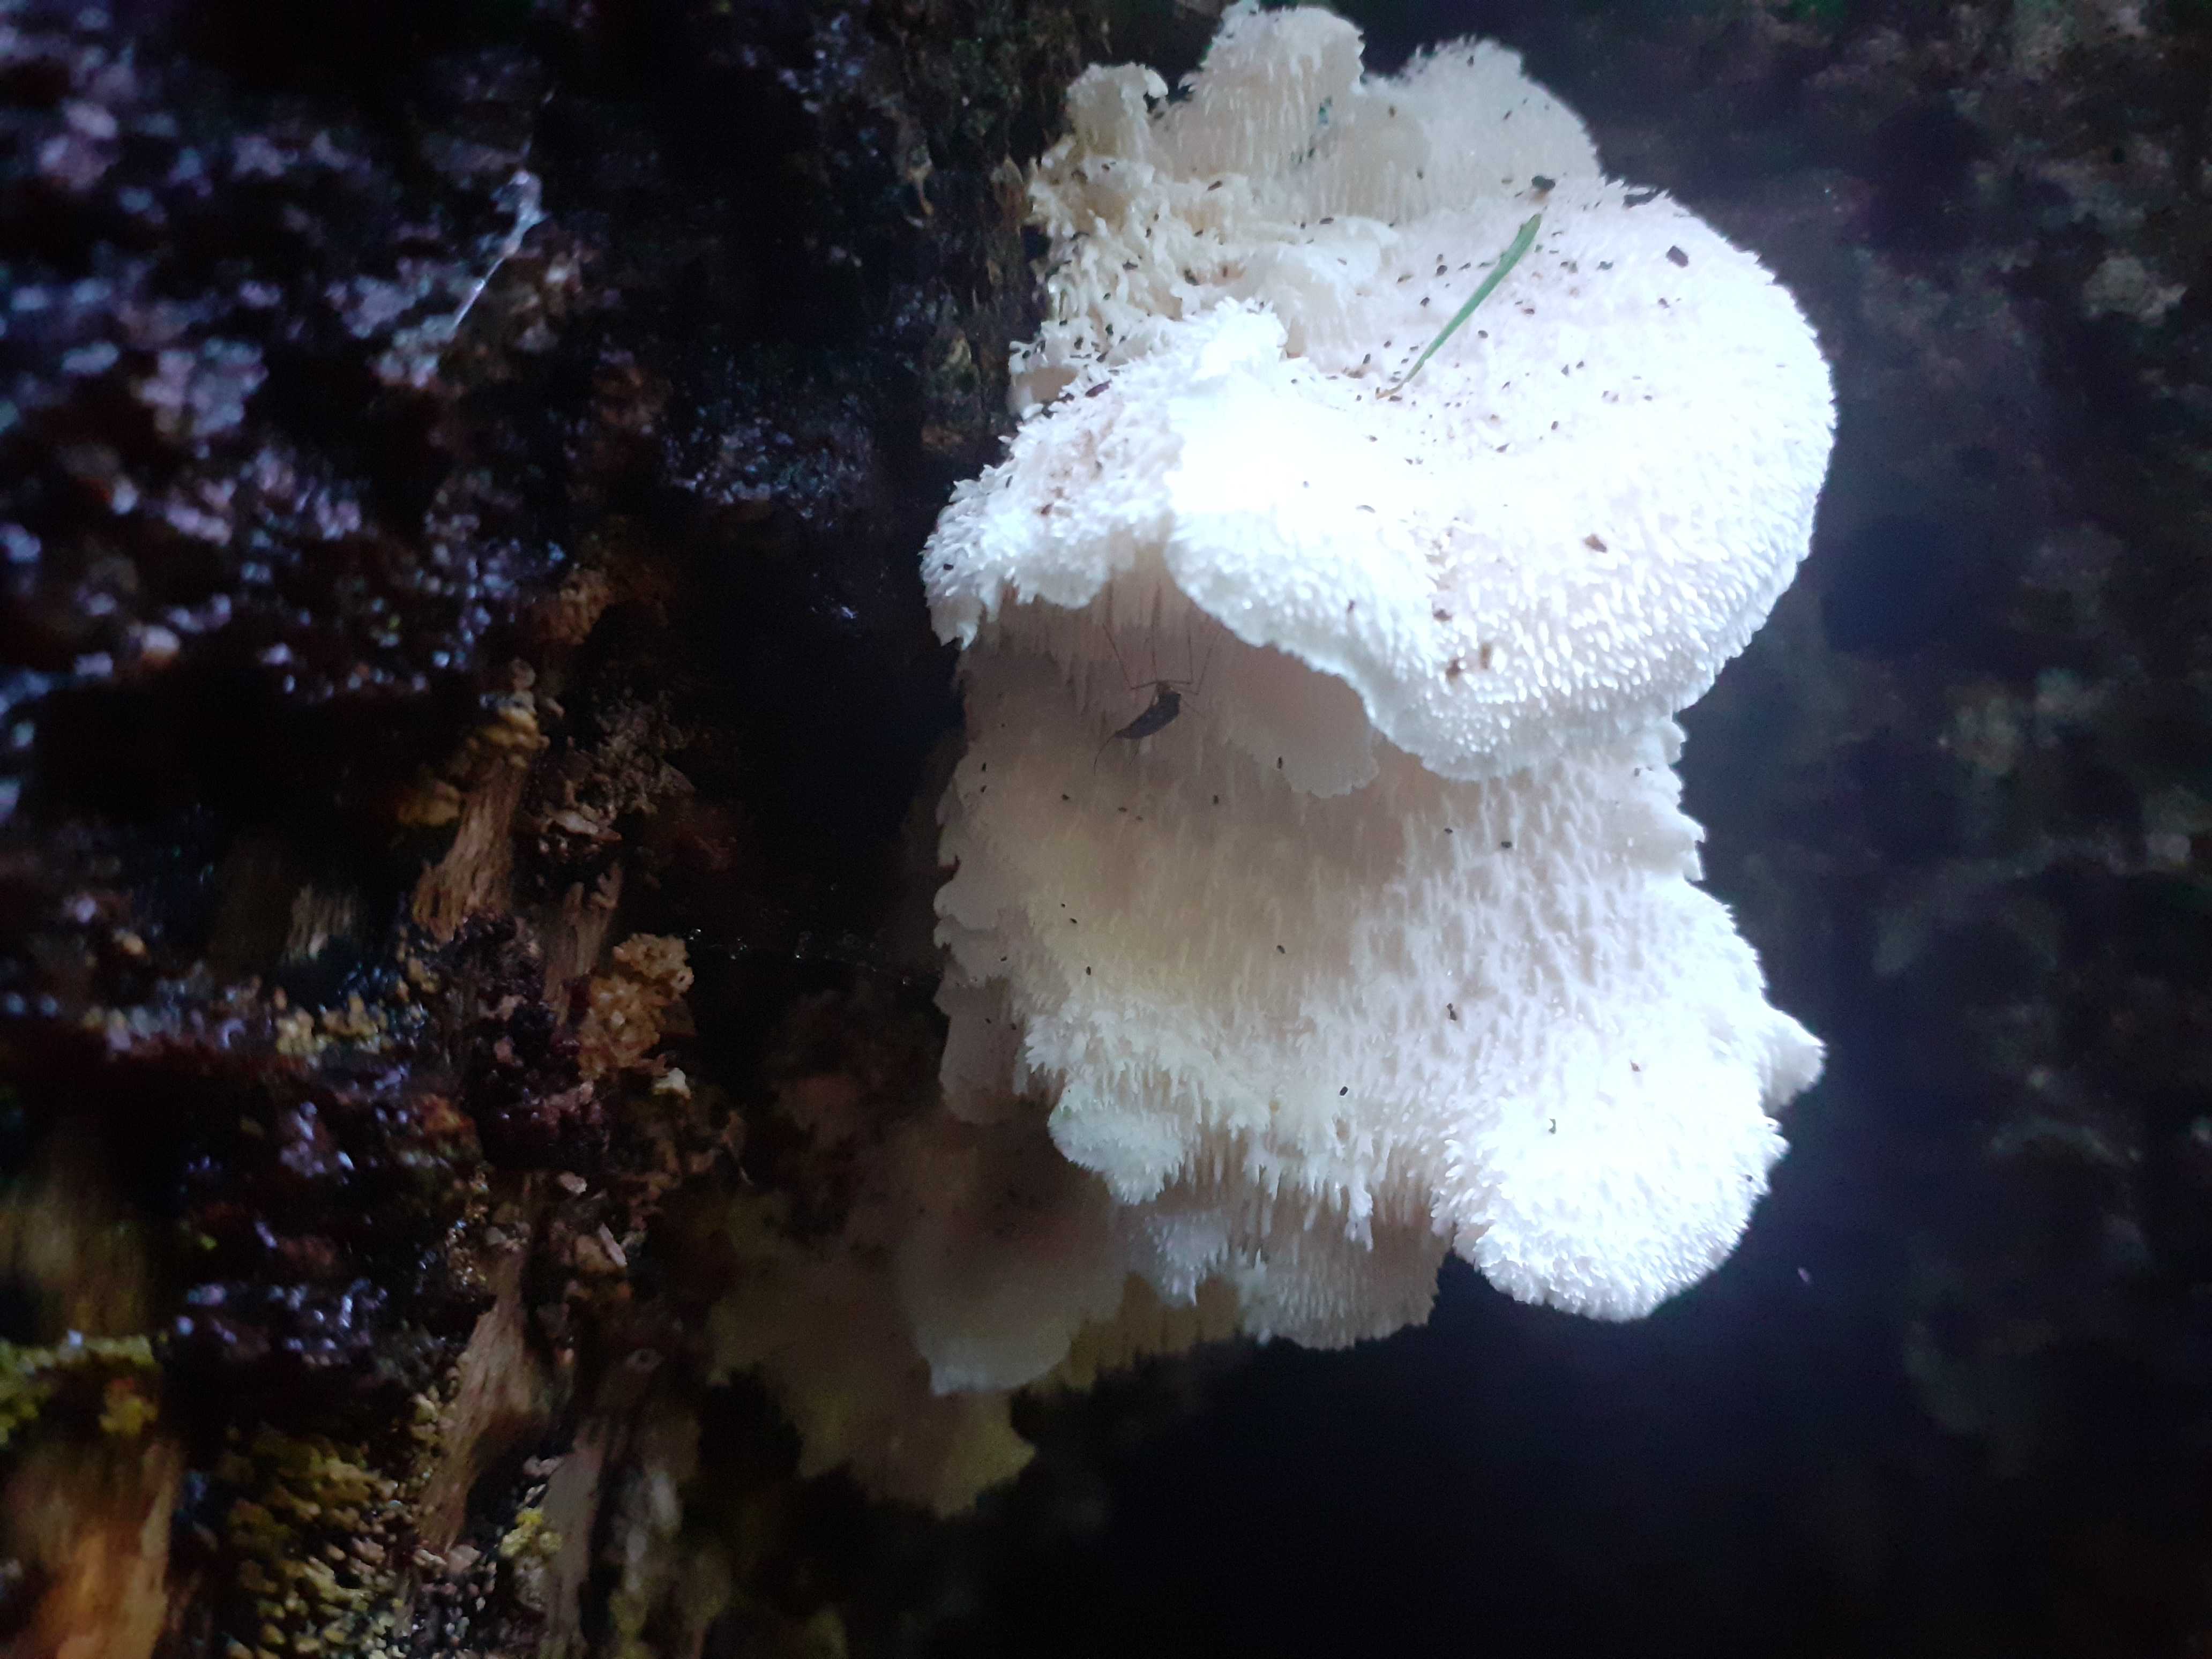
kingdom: Fungi
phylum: Basidiomycota
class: Agaricomycetes
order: Russulales
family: Hericiaceae
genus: Hericium
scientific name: Hericium cirrhatum
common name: børstepigsvamp
